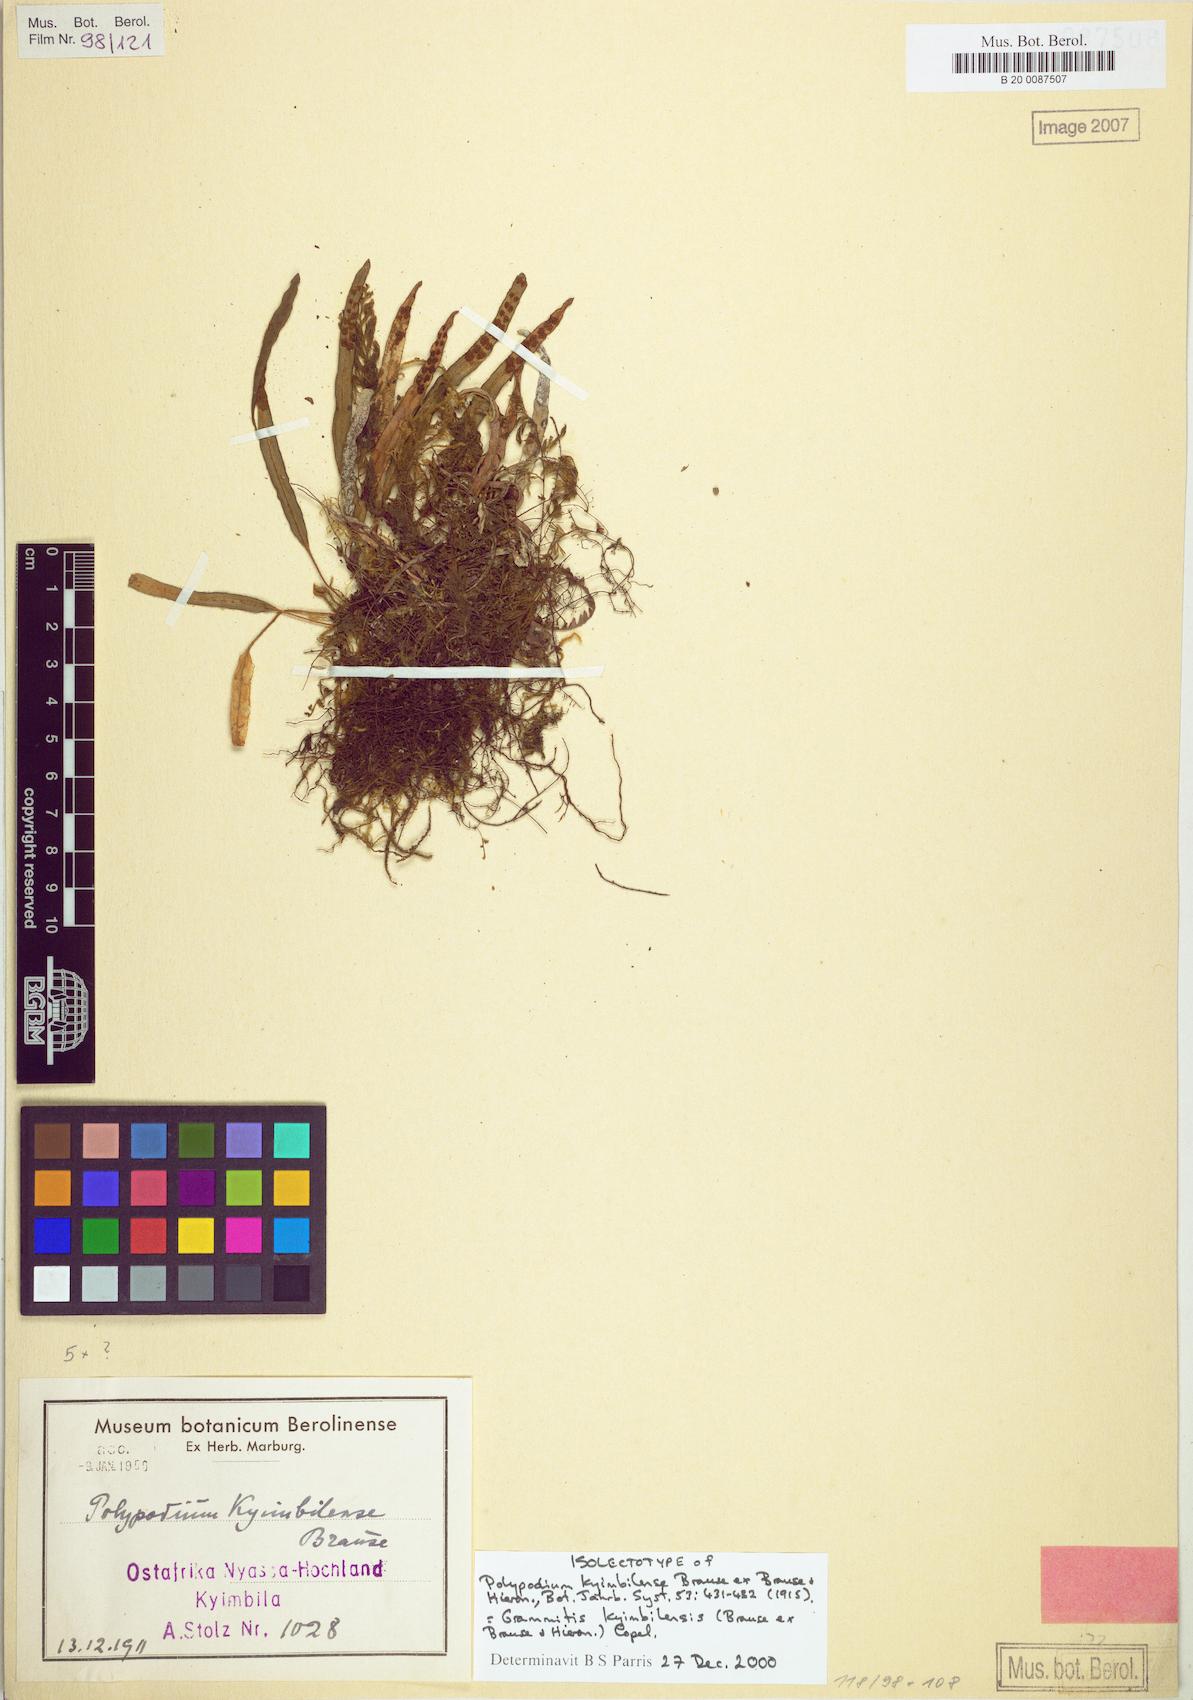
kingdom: Plantae
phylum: Tracheophyta
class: Polypodiopsida
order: Polypodiales
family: Polypodiaceae
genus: Grammitis
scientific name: Grammitis kyimbilensis
